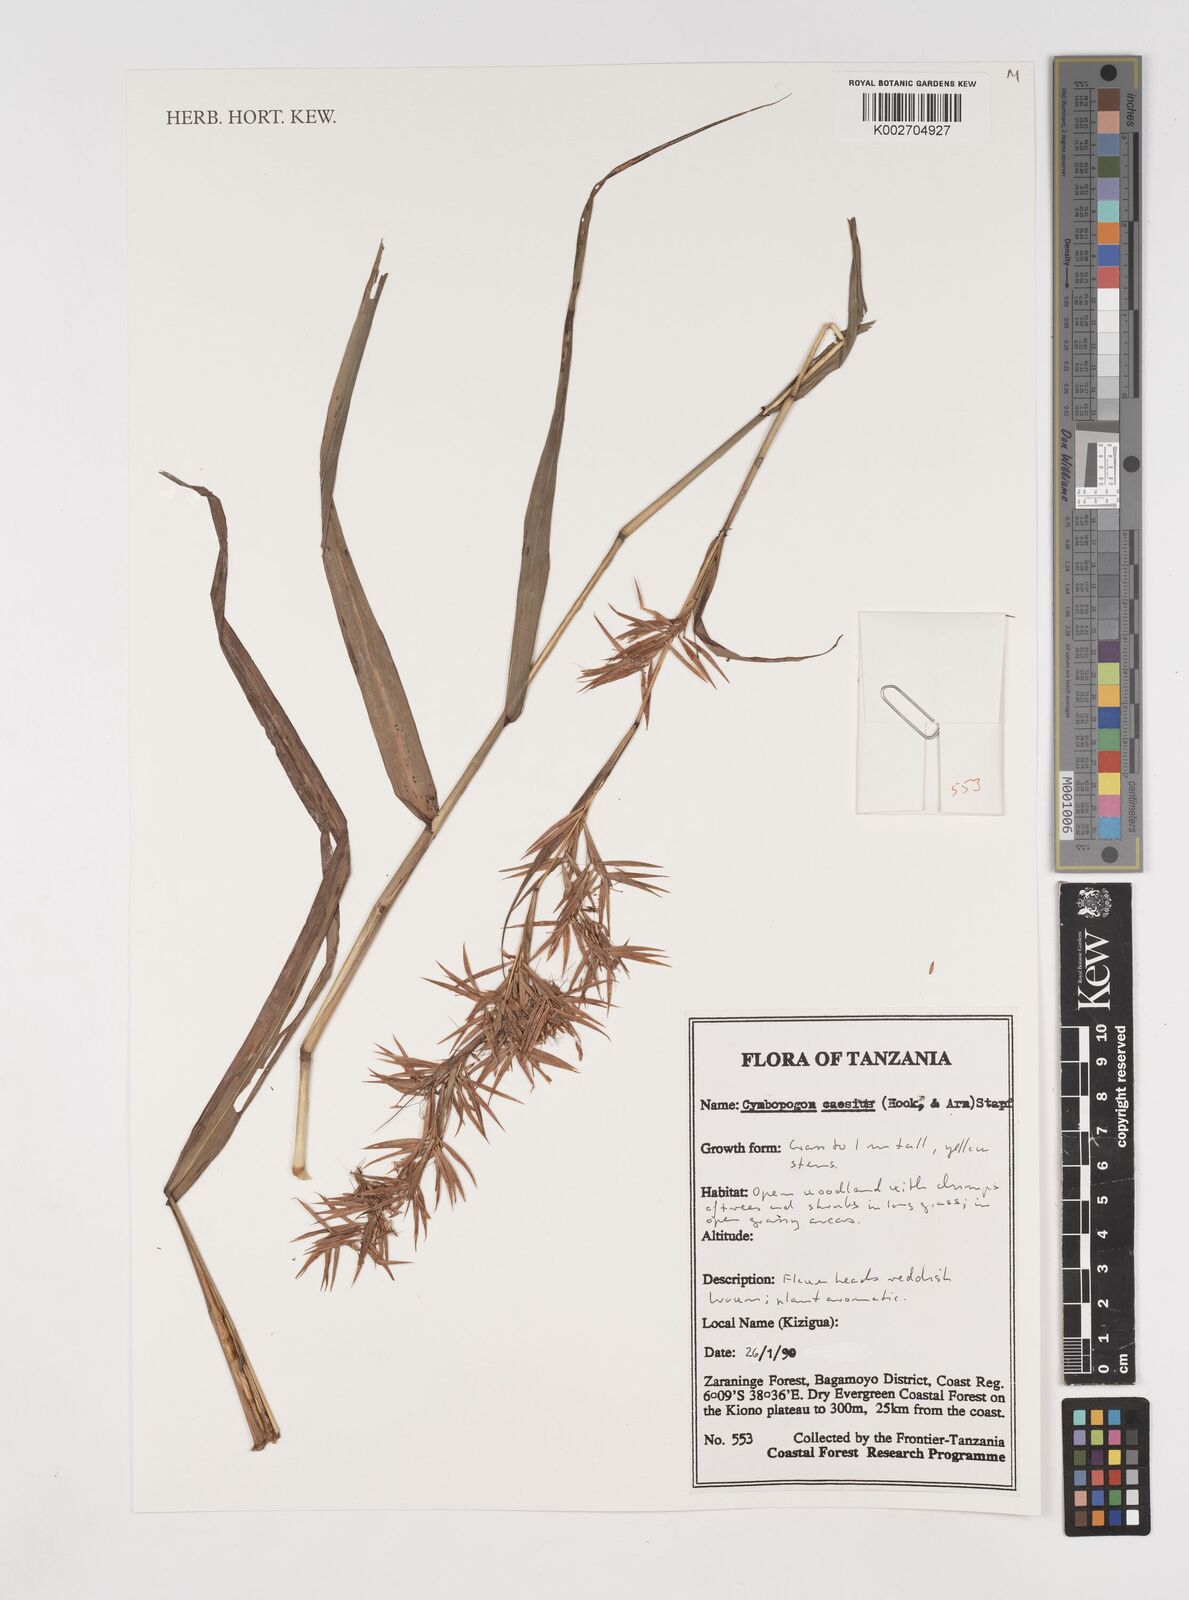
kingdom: Plantae
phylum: Tracheophyta
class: Liliopsida
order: Poales
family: Poaceae
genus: Cymbopogon
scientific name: Cymbopogon caesius
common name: Kachi grass
